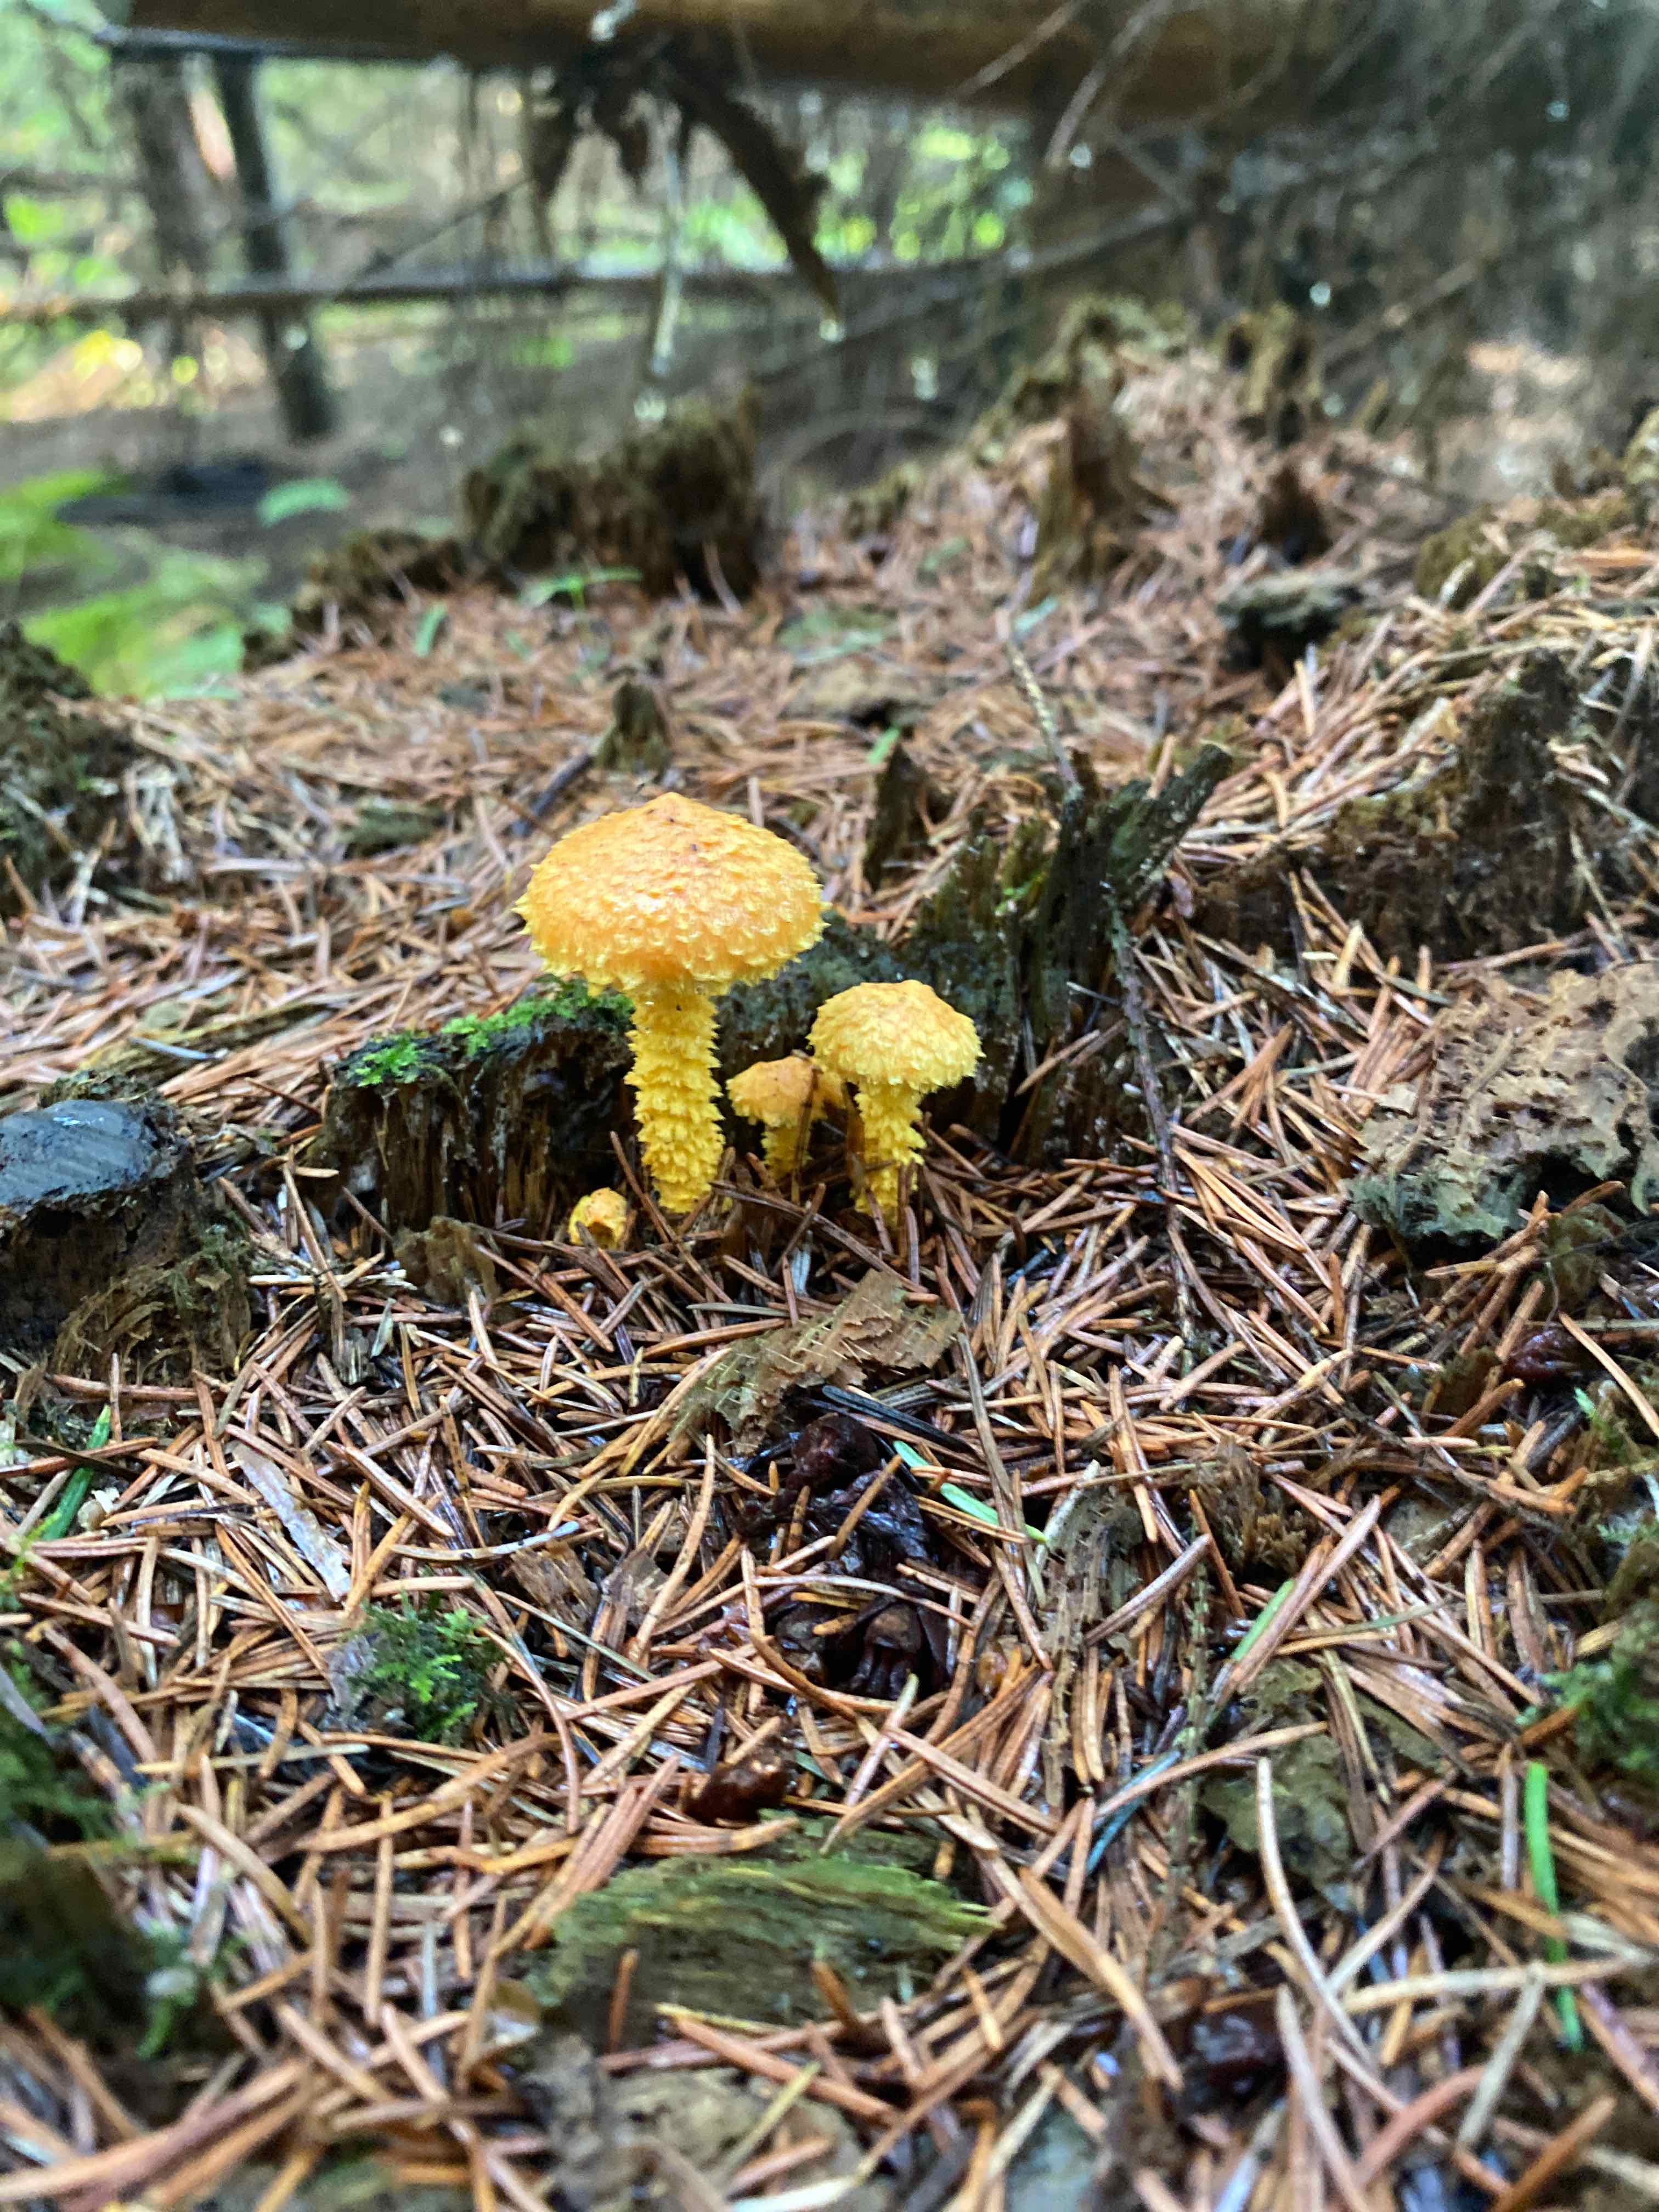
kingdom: Fungi
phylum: Basidiomycota
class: Agaricomycetes
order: Agaricales
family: Strophariaceae
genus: Pholiota
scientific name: Pholiota flammans
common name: flamme-skælhat
